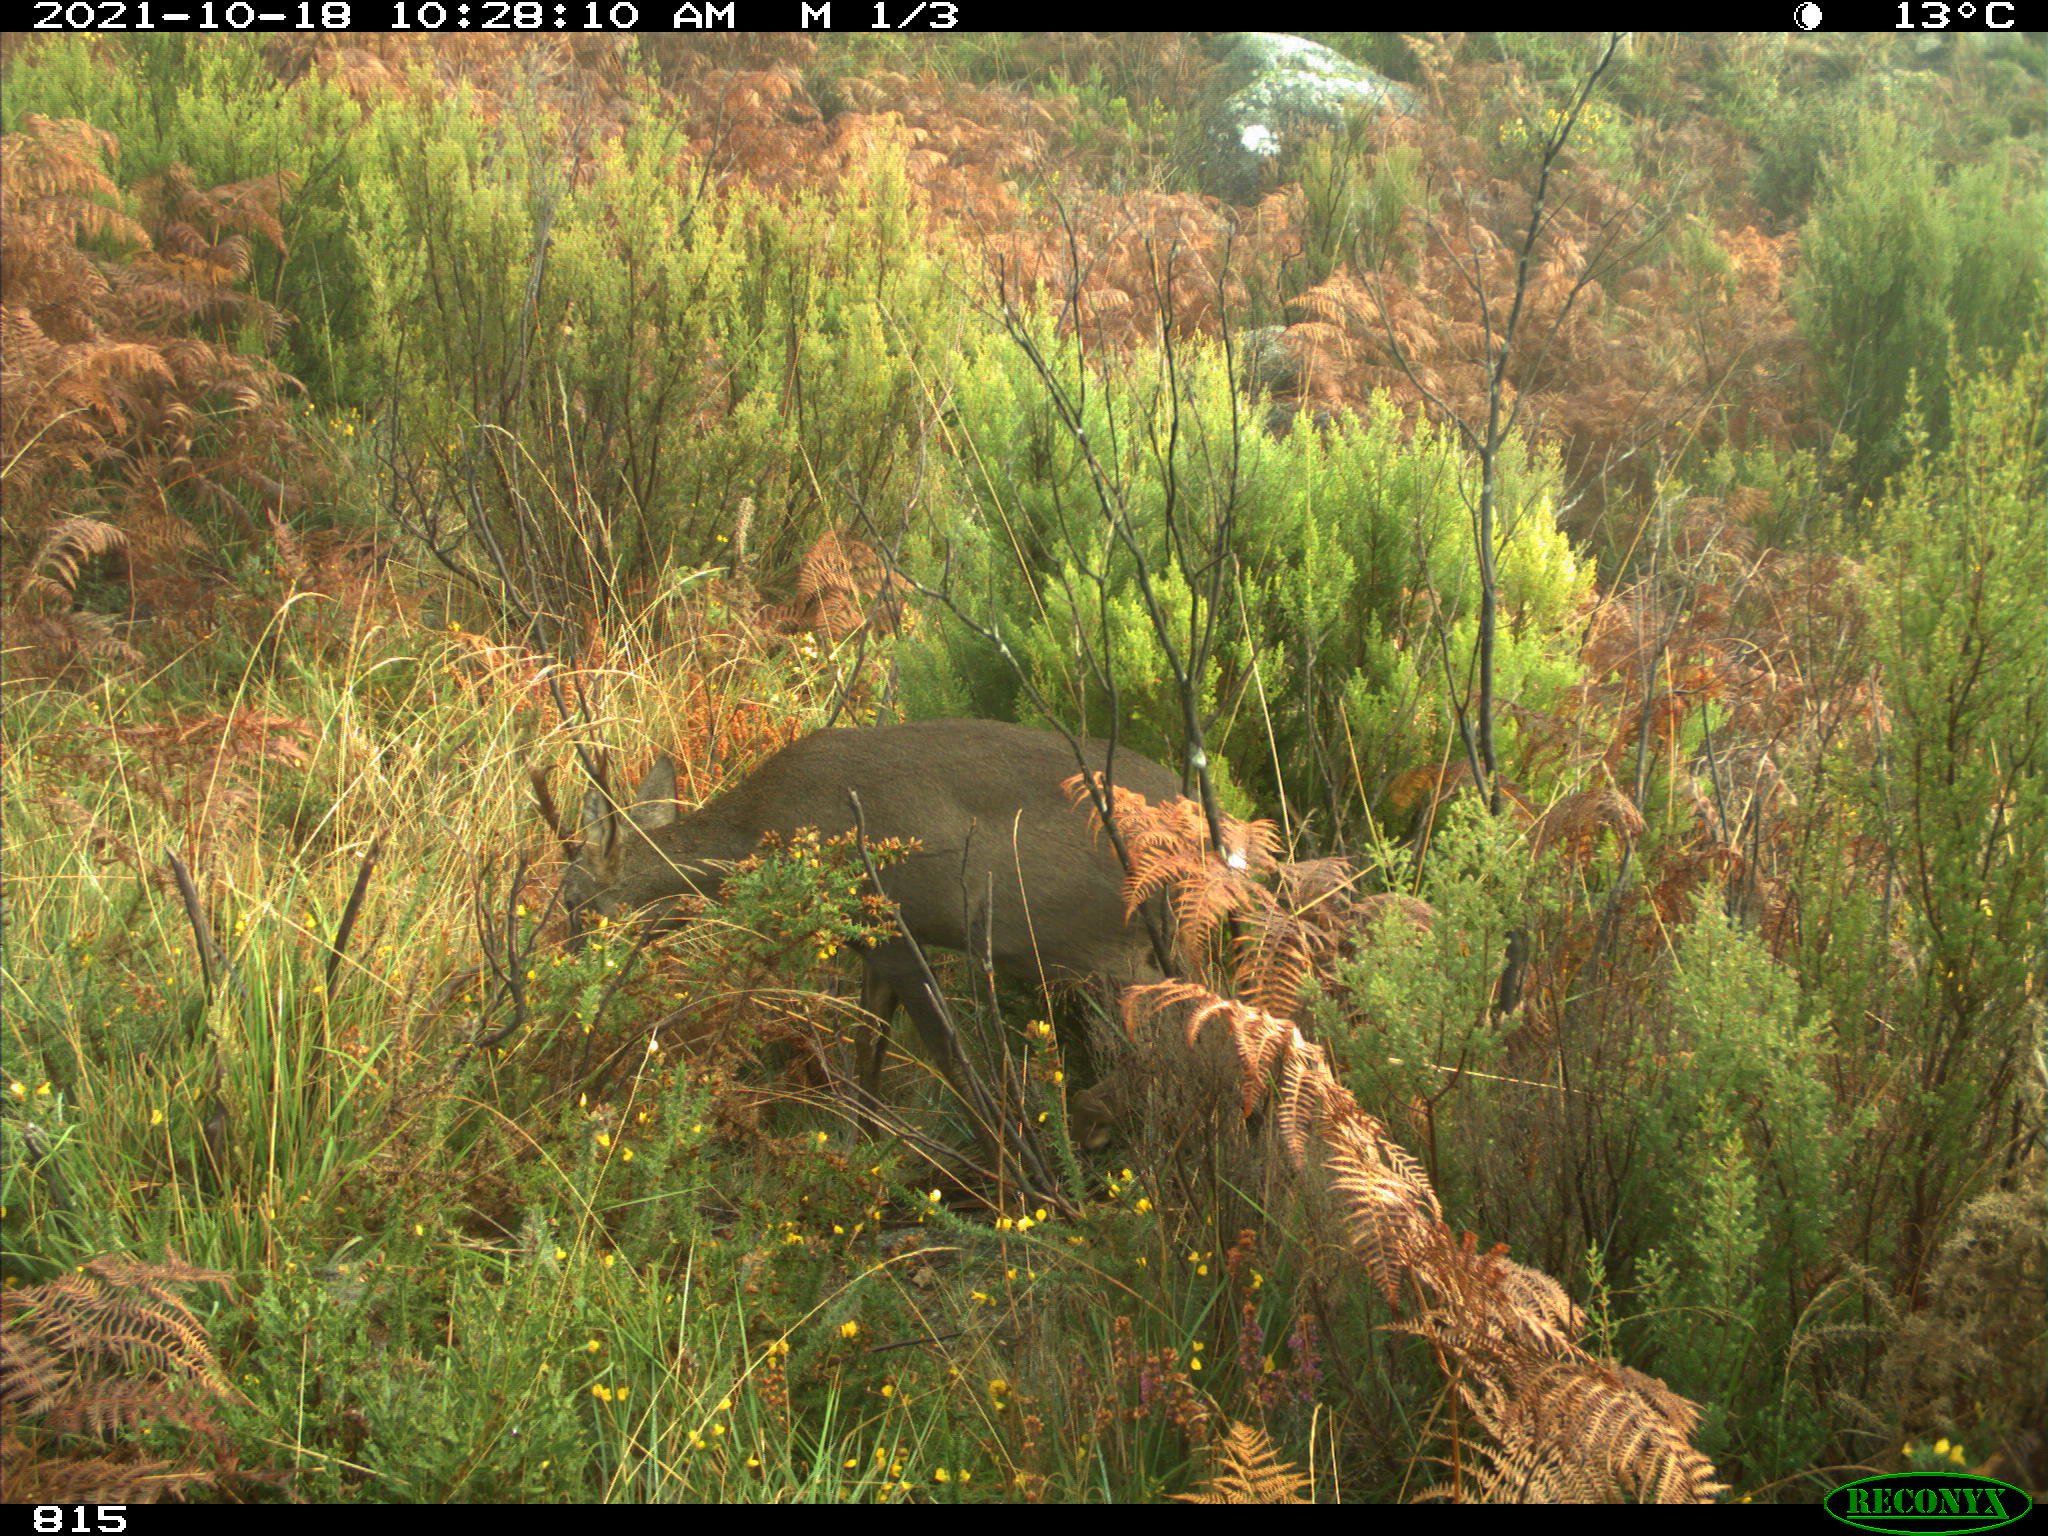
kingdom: Animalia
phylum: Chordata
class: Mammalia
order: Artiodactyla
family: Cervidae
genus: Capreolus
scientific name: Capreolus capreolus
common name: Western roe deer
